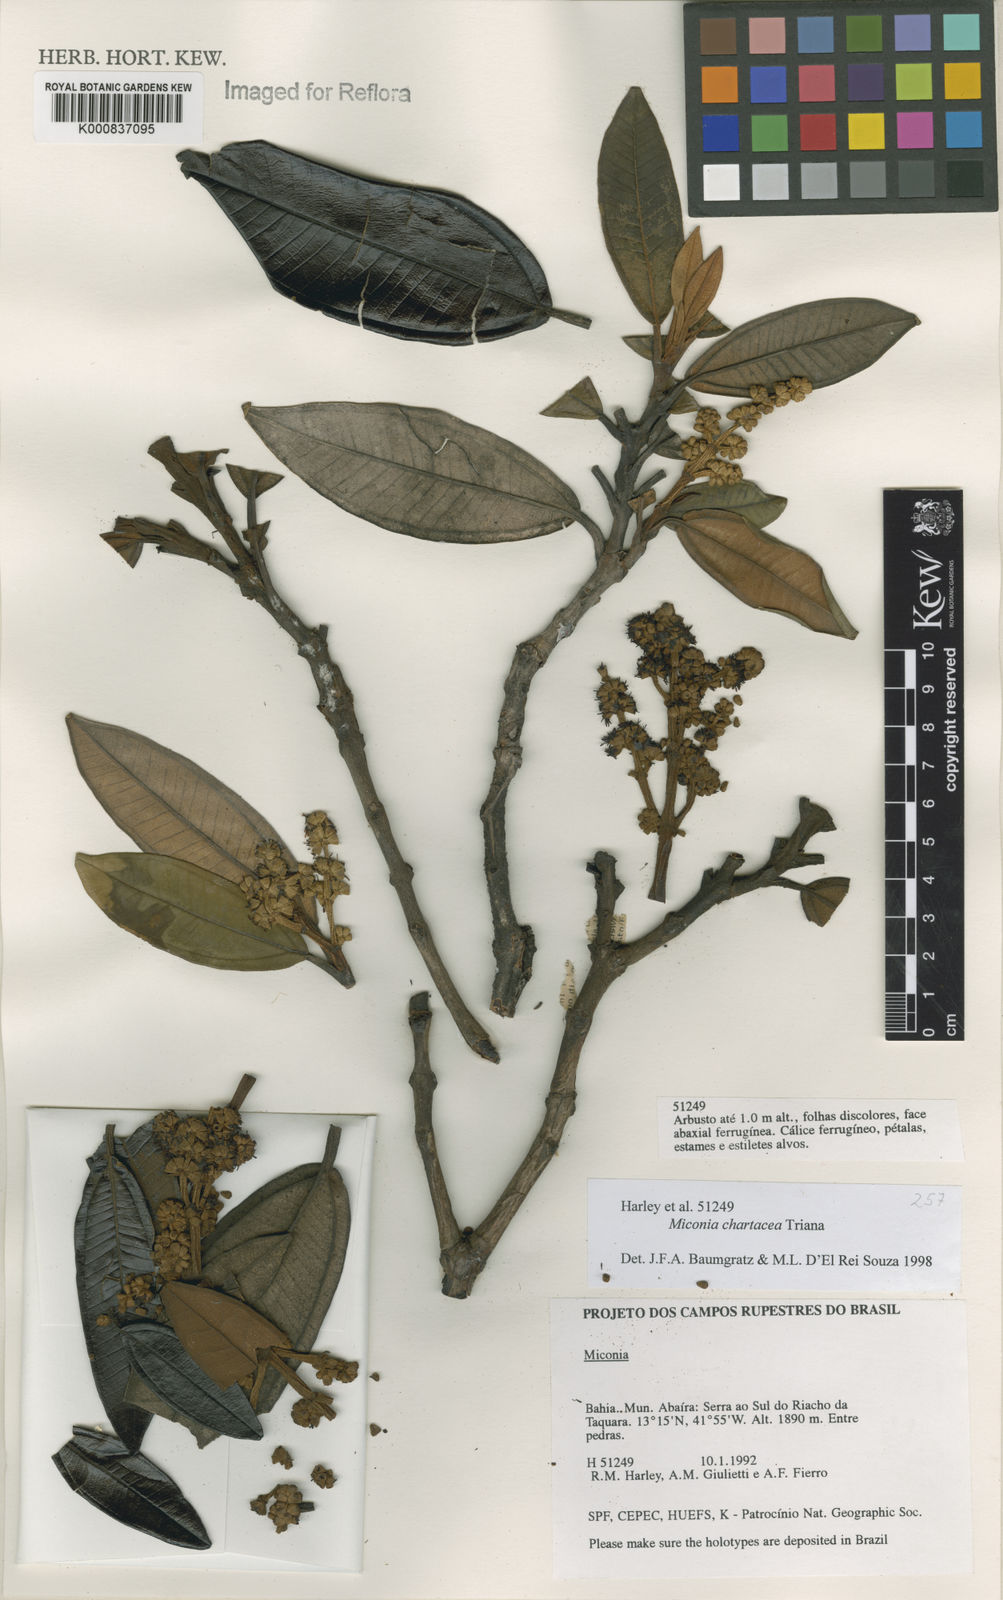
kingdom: Plantae
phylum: Tracheophyta
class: Magnoliopsida
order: Myrtales
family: Melastomataceae
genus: Miconia
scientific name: Miconia chartacea
